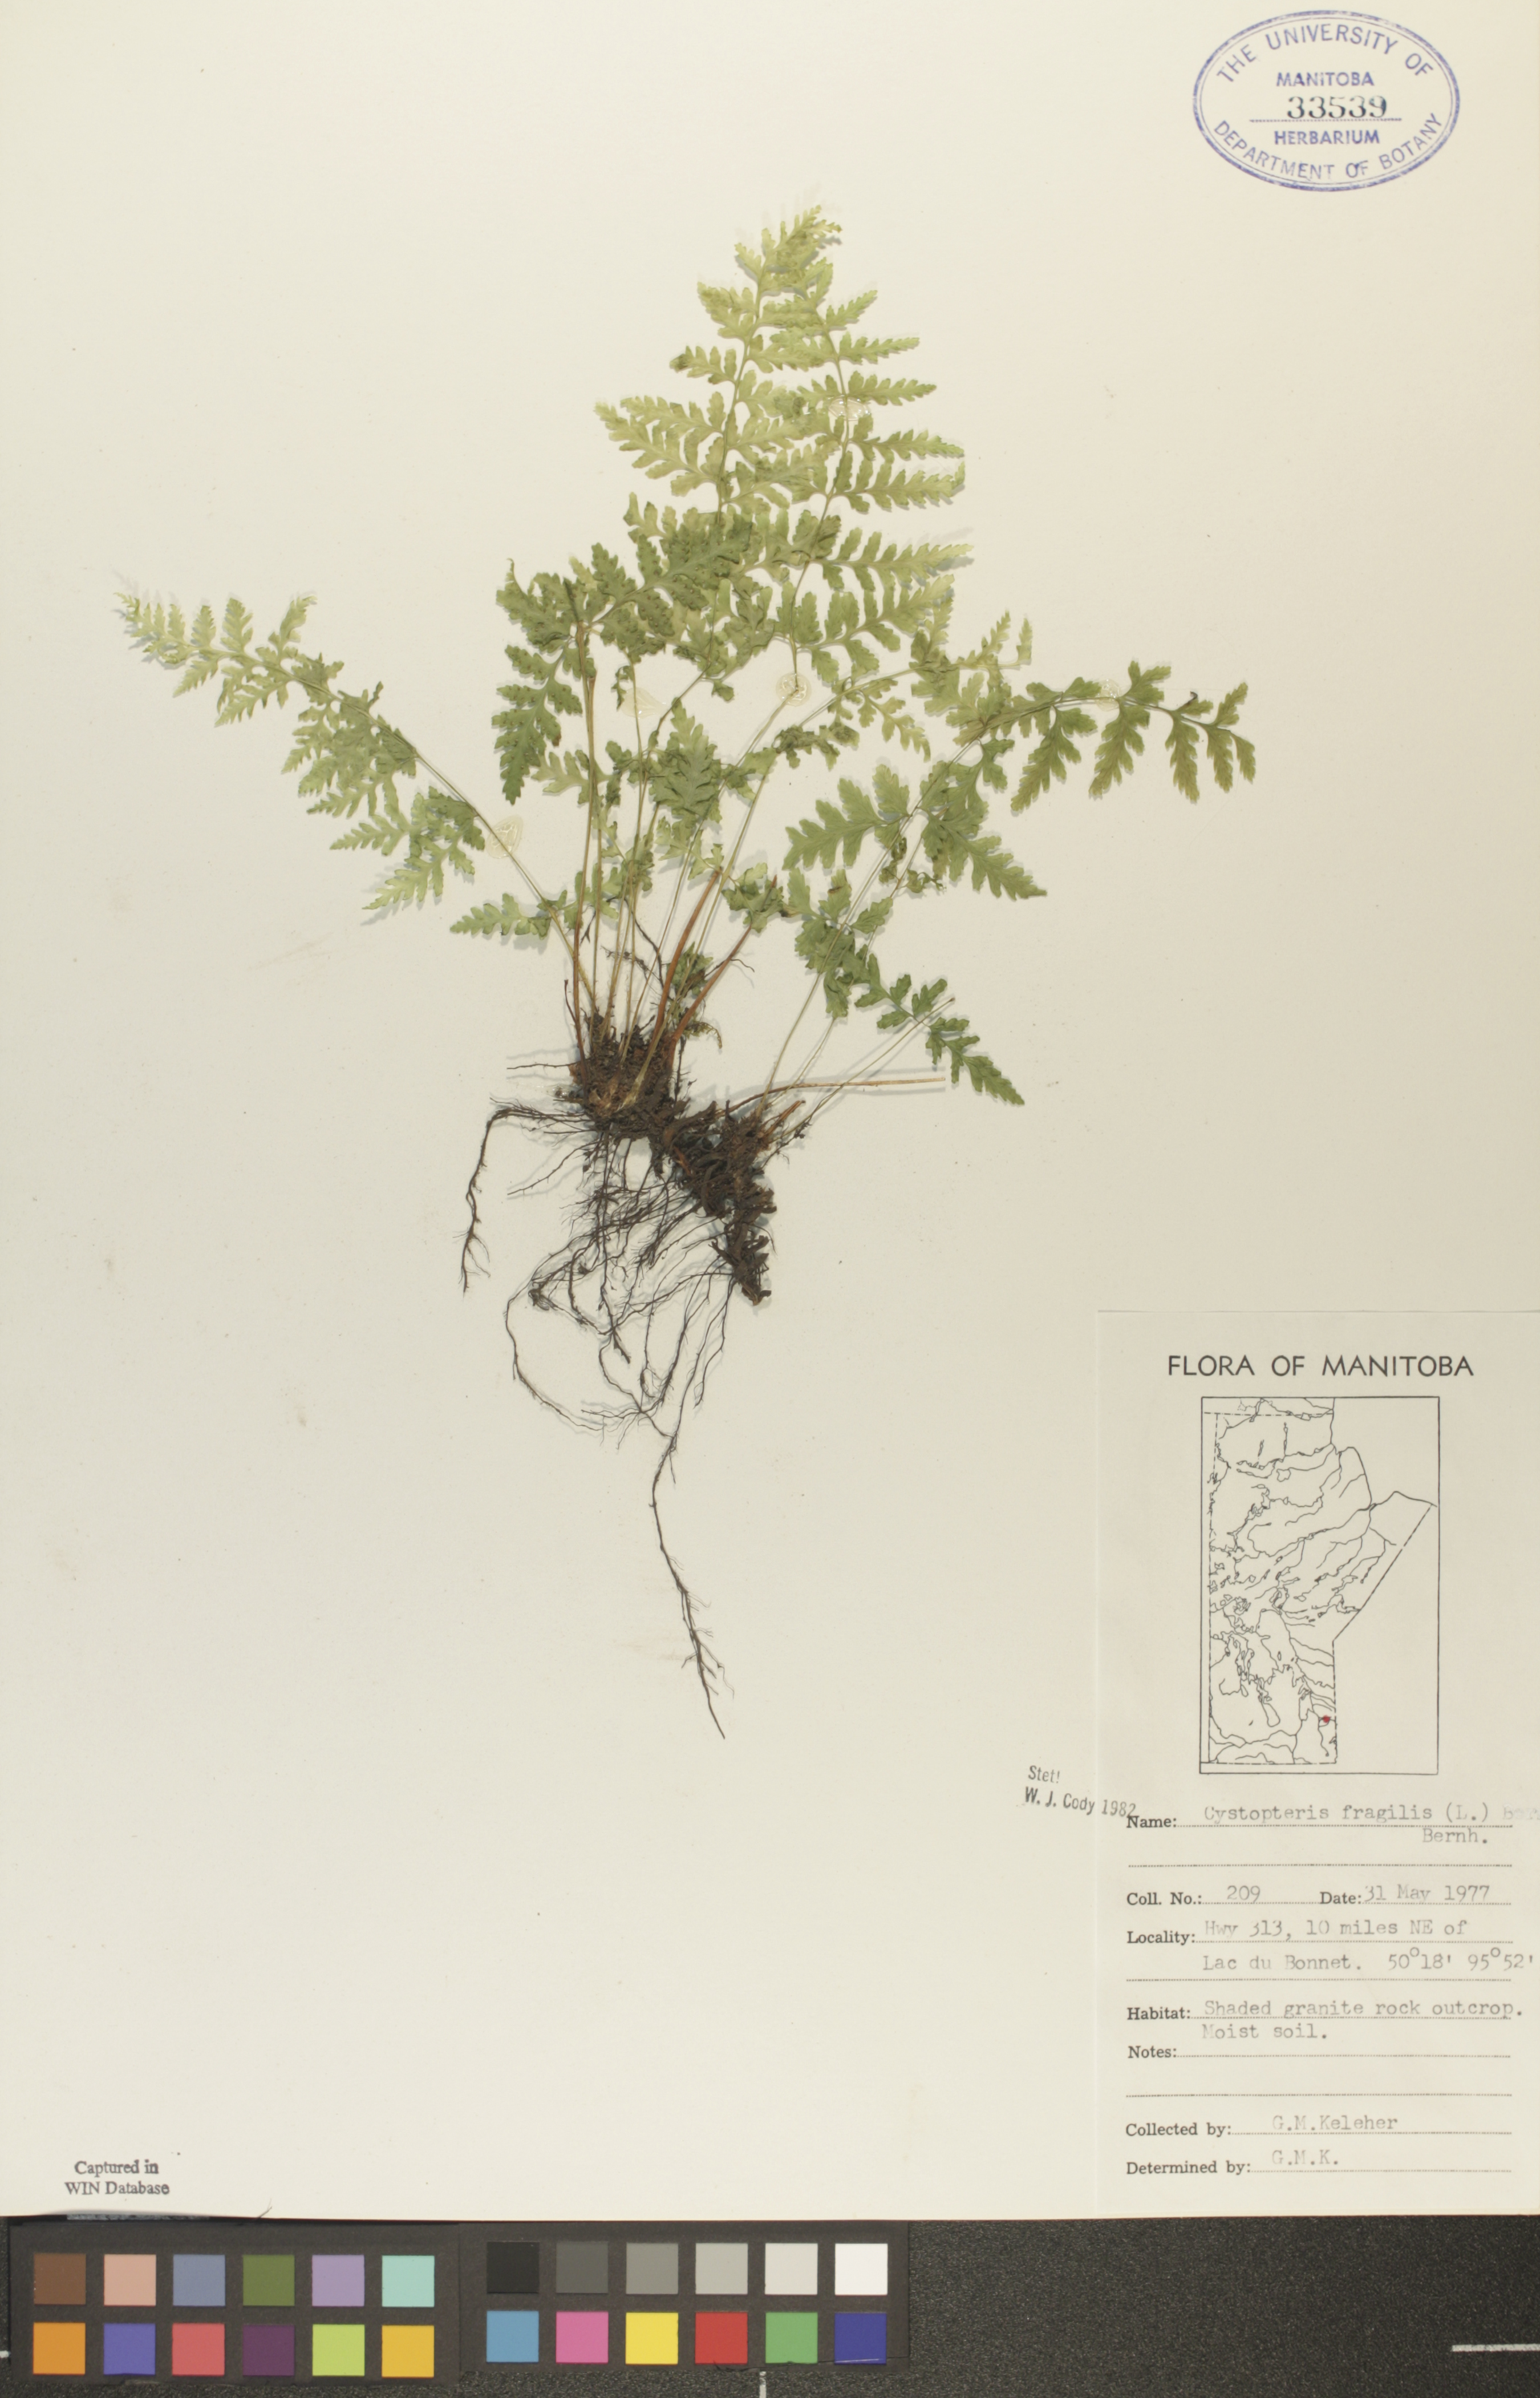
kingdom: Plantae
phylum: Tracheophyta
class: Polypodiopsida
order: Polypodiales
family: Cystopteridaceae
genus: Cystopteris
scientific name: Cystopteris fragilis
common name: Brittle bladder fern
